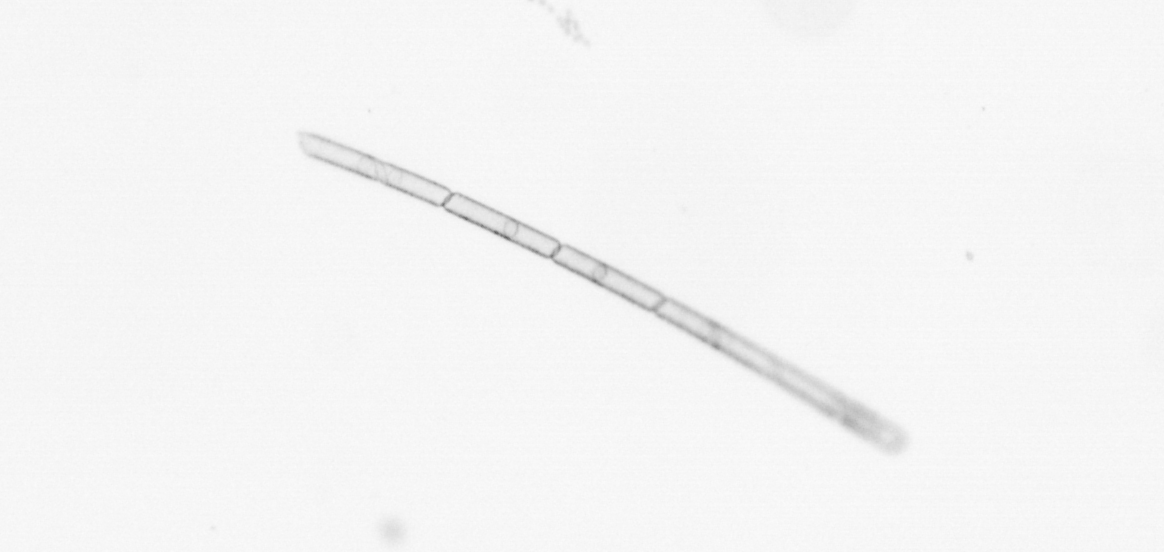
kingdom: Chromista
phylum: Ochrophyta
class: Bacillariophyceae
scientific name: Bacillariophyceae
